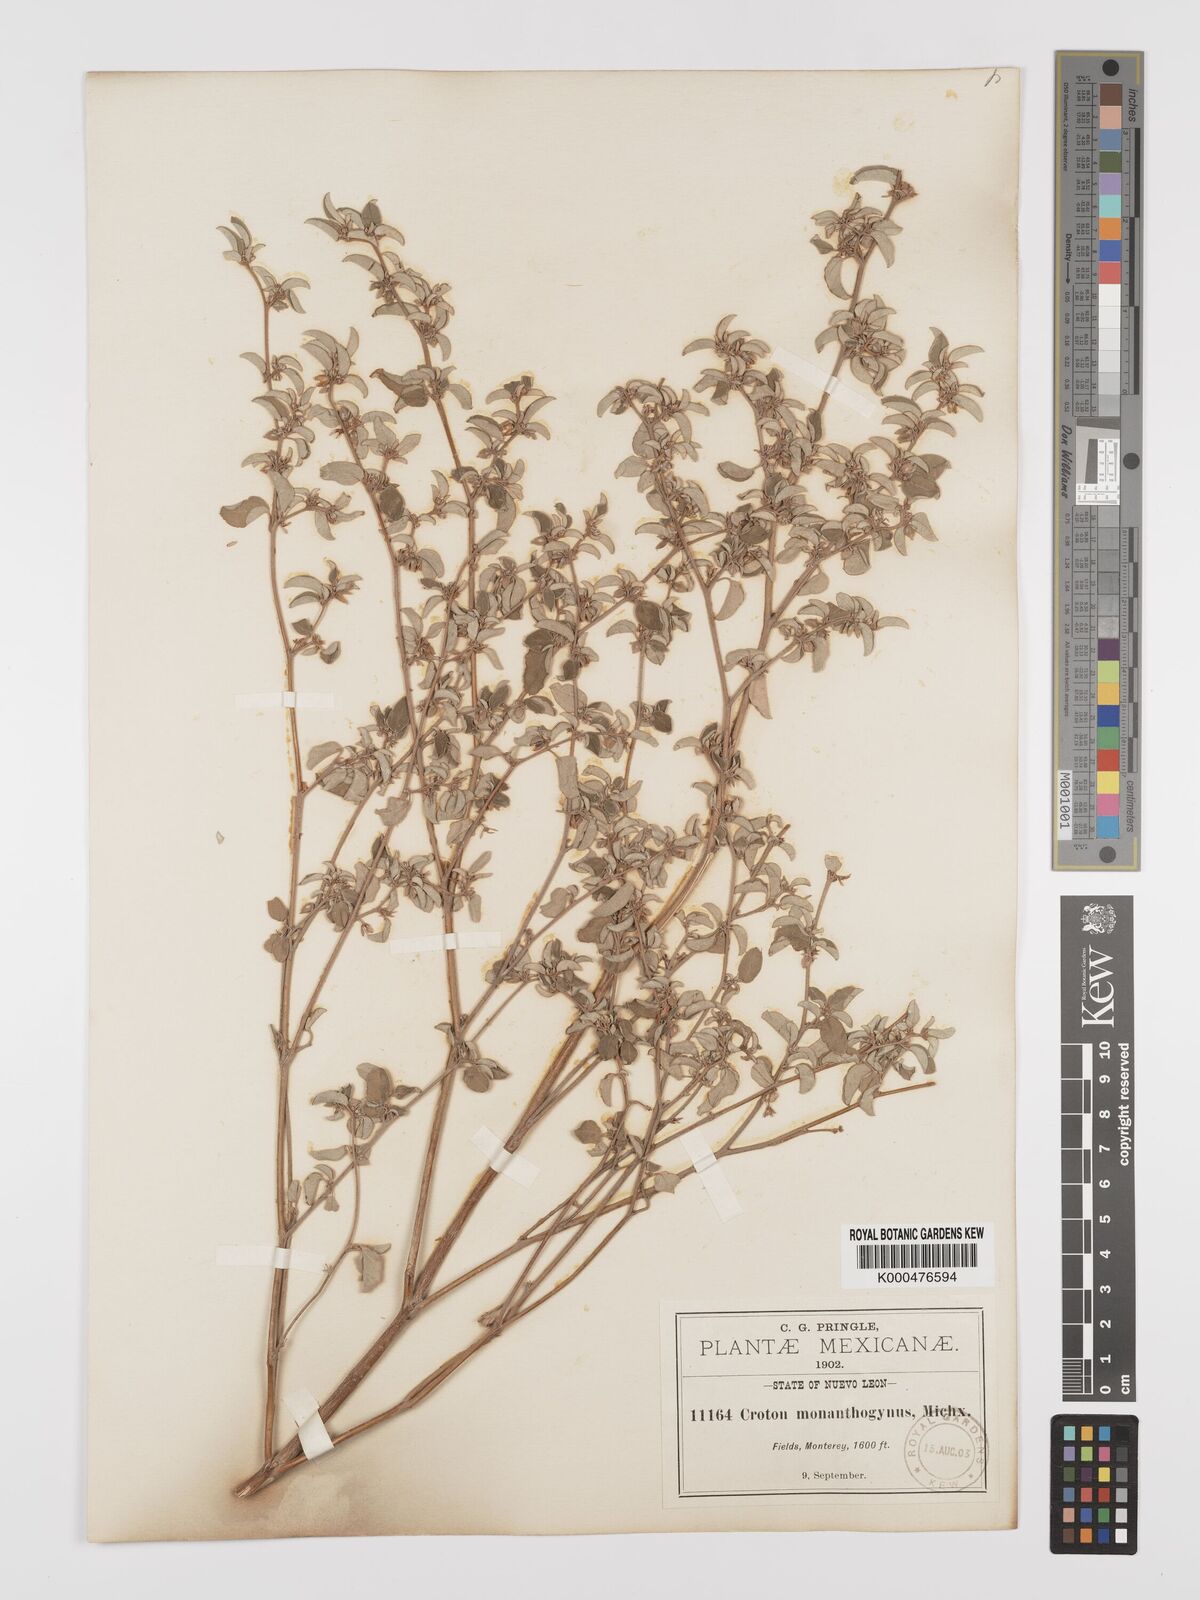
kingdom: Plantae
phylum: Tracheophyta
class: Magnoliopsida
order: Malpighiales
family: Euphorbiaceae
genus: Croton
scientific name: Croton monanthogynus
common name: One-seed croton
